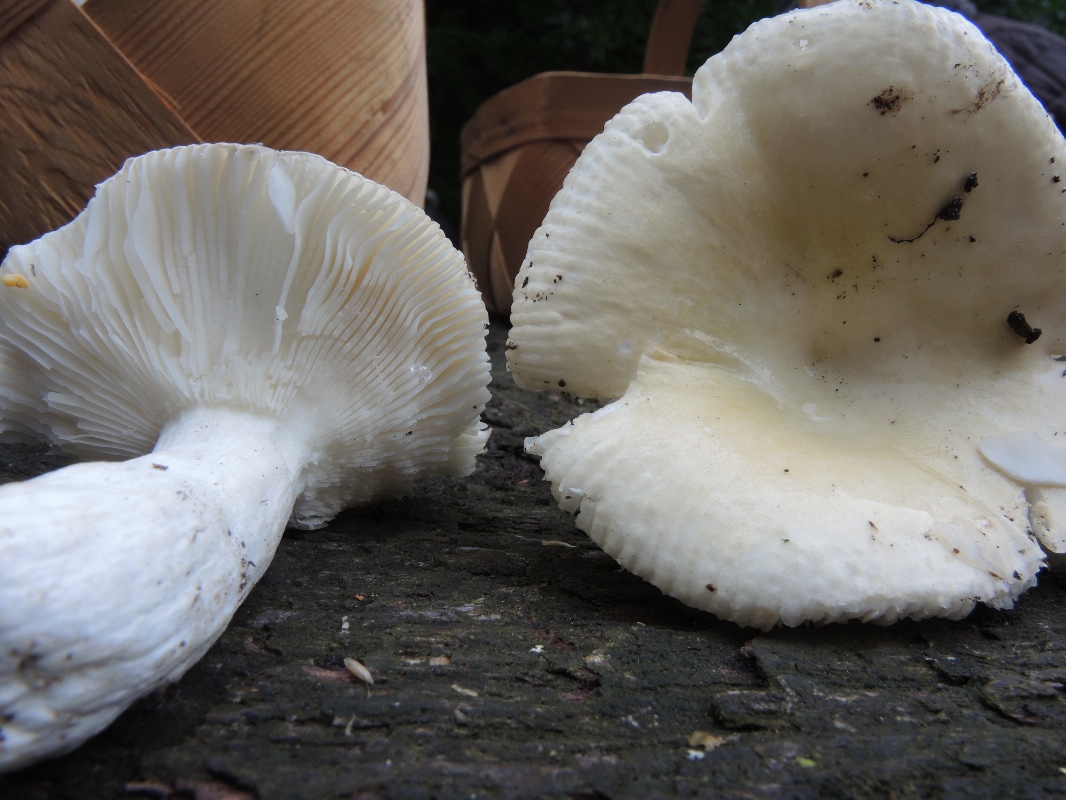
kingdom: Fungi
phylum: Basidiomycota
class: Agaricomycetes
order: Russulales
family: Russulaceae
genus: Russula
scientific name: Russula roseoaurantia
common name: kornet skørhat
